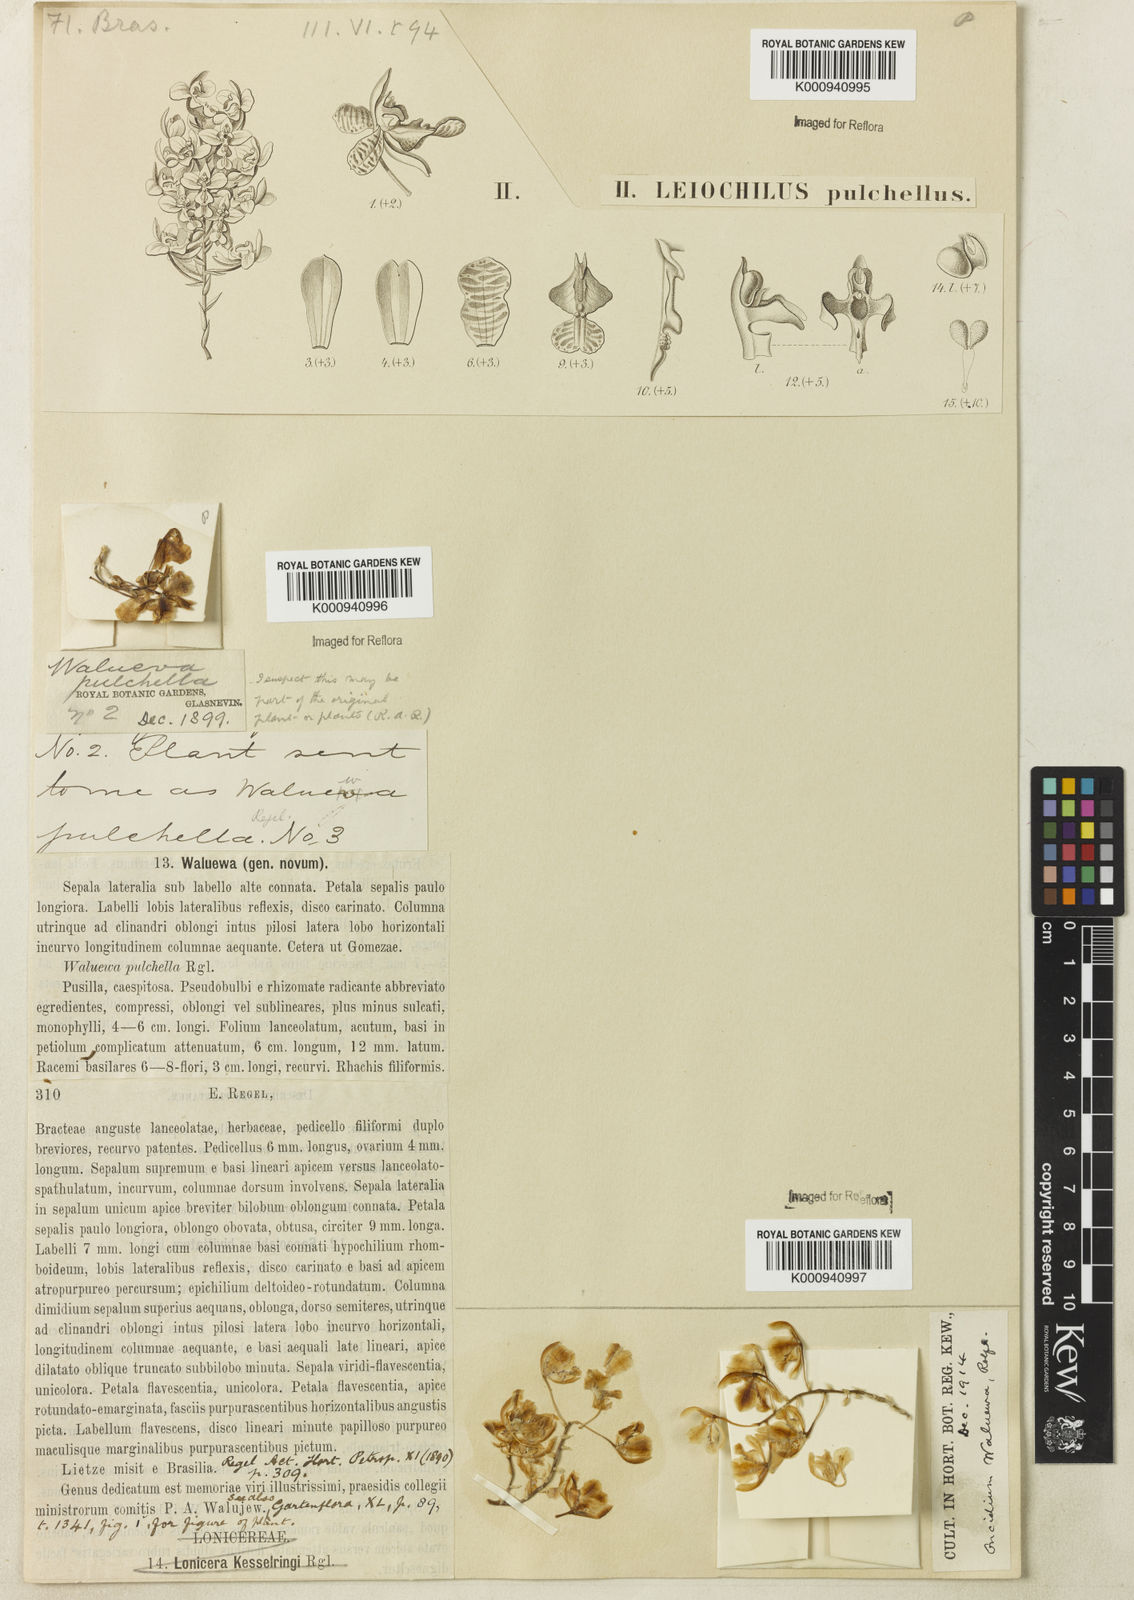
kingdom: Plantae
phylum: Tracheophyta
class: Liliopsida
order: Asparagales
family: Orchidaceae
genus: Gomesa
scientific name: Gomesa pulchella
